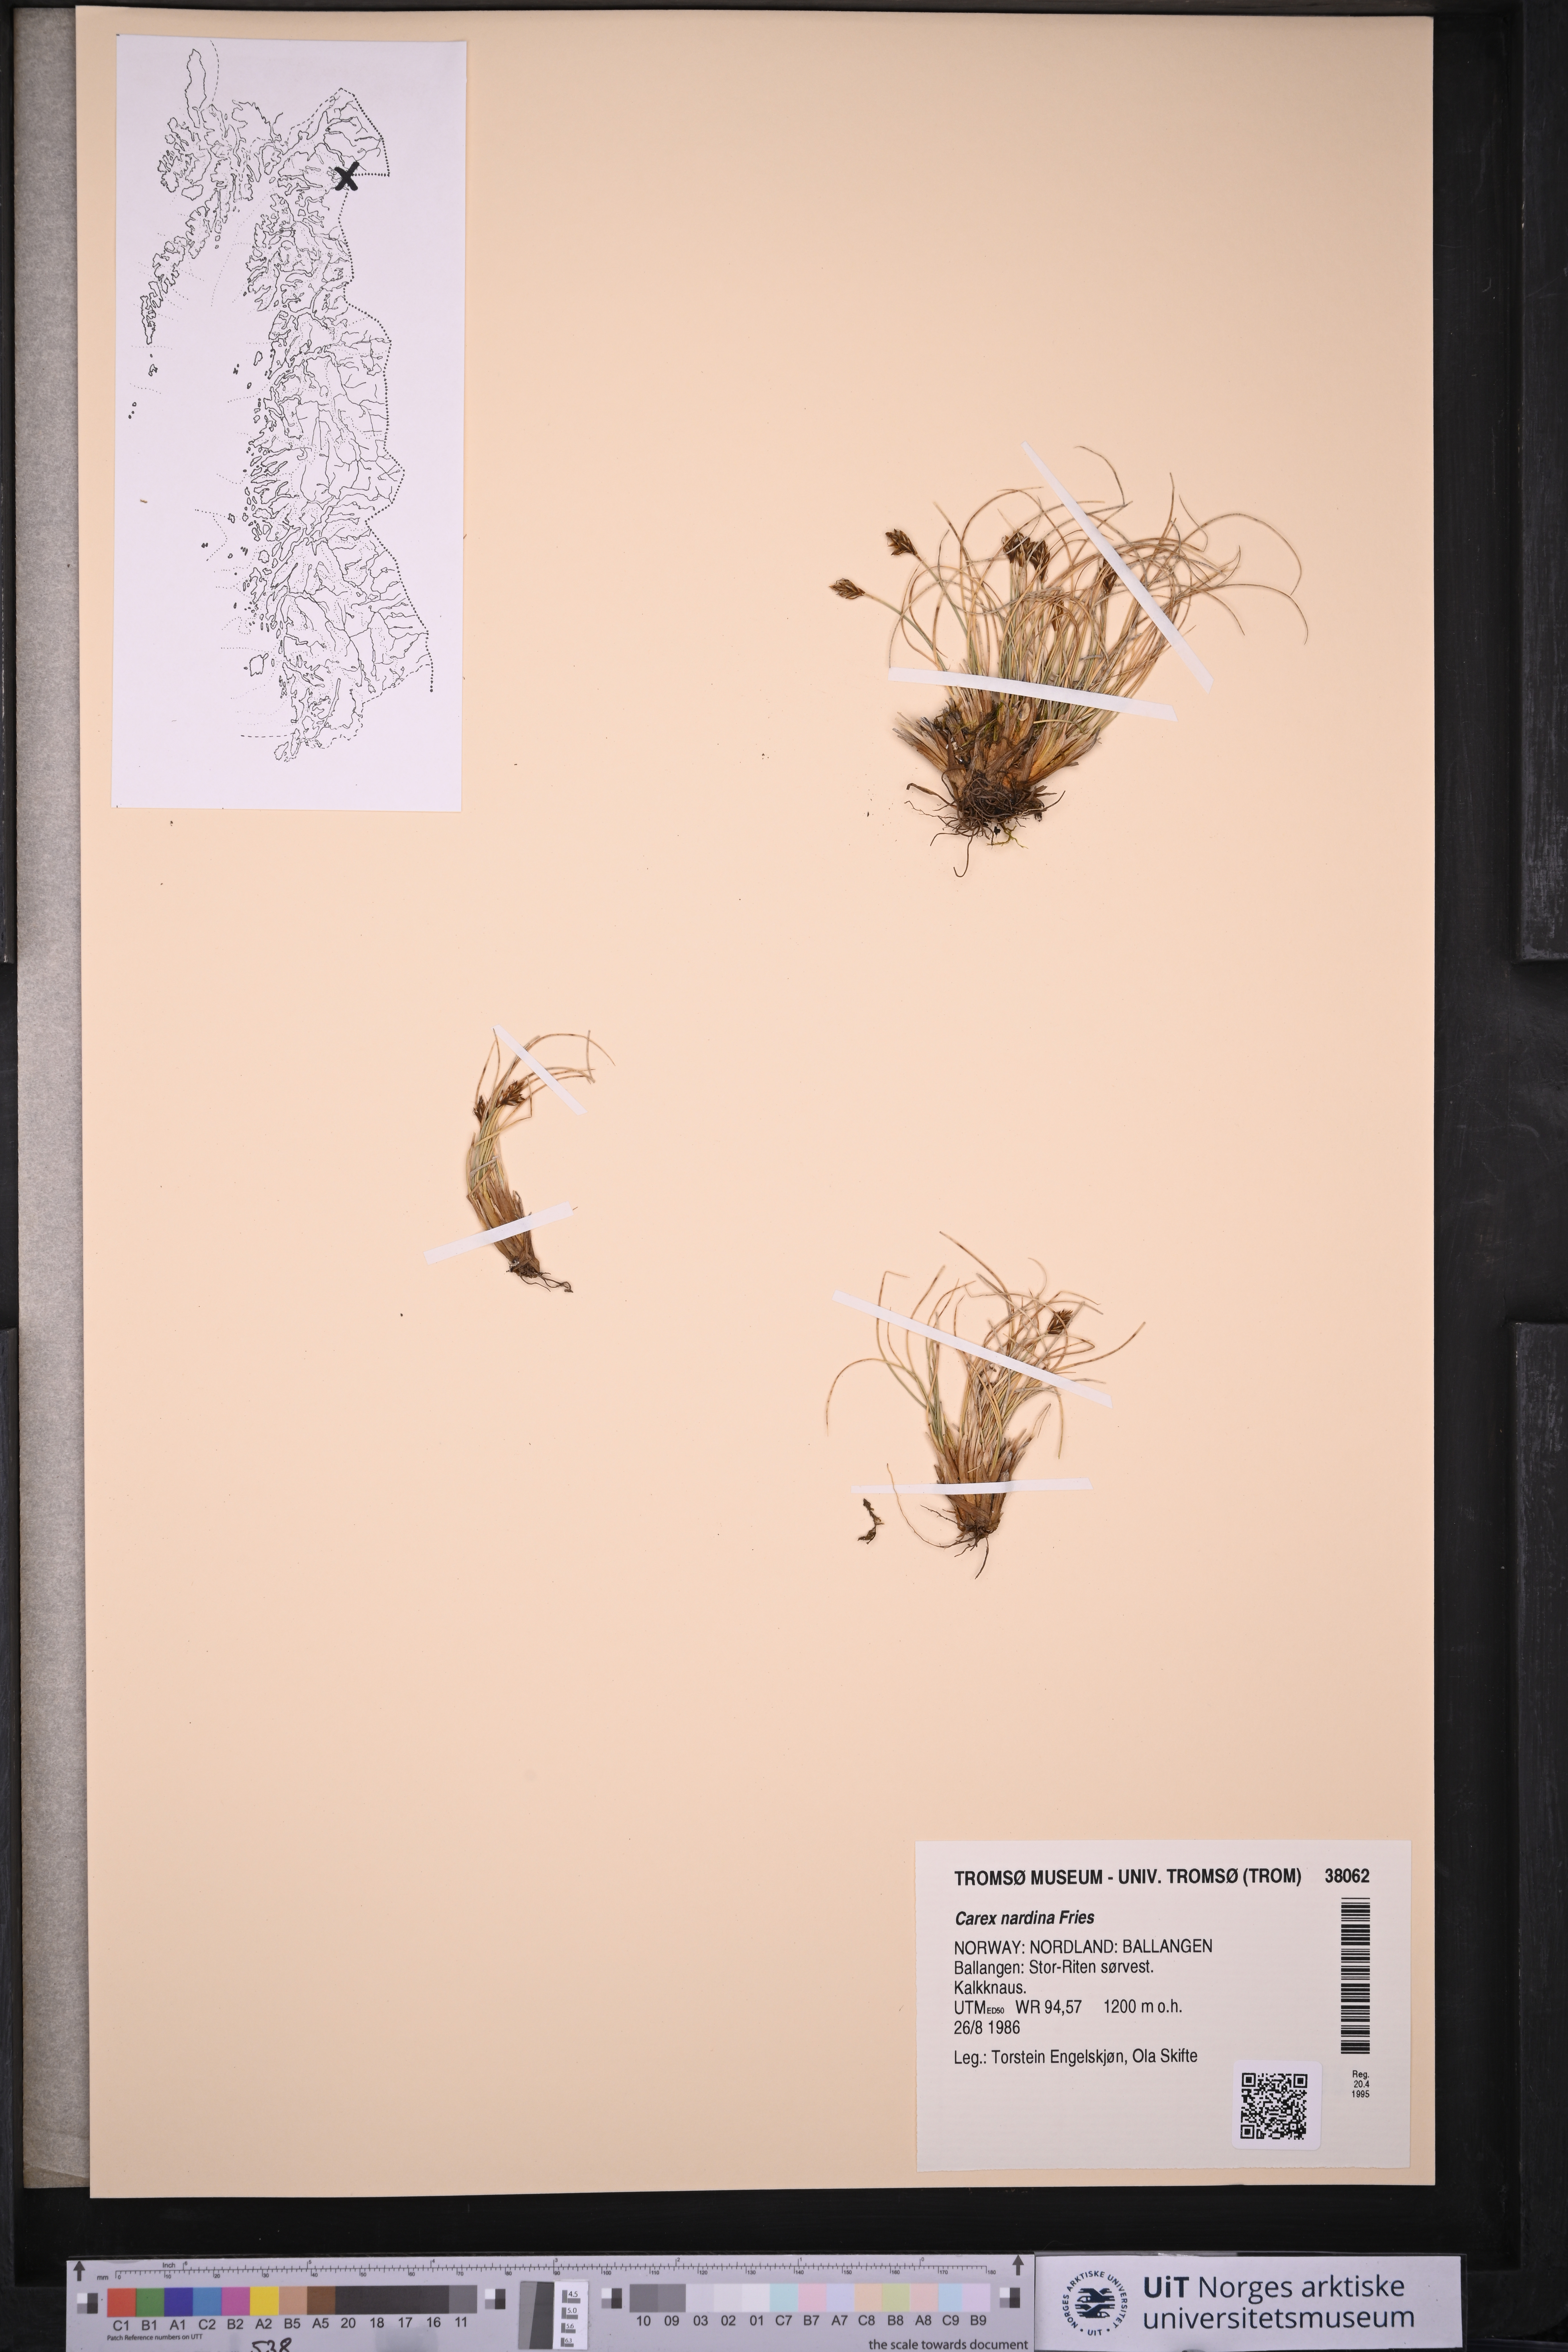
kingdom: Plantae
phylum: Tracheophyta
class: Liliopsida
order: Poales
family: Cyperaceae
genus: Carex
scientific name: Carex nardina
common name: Nard sedge
